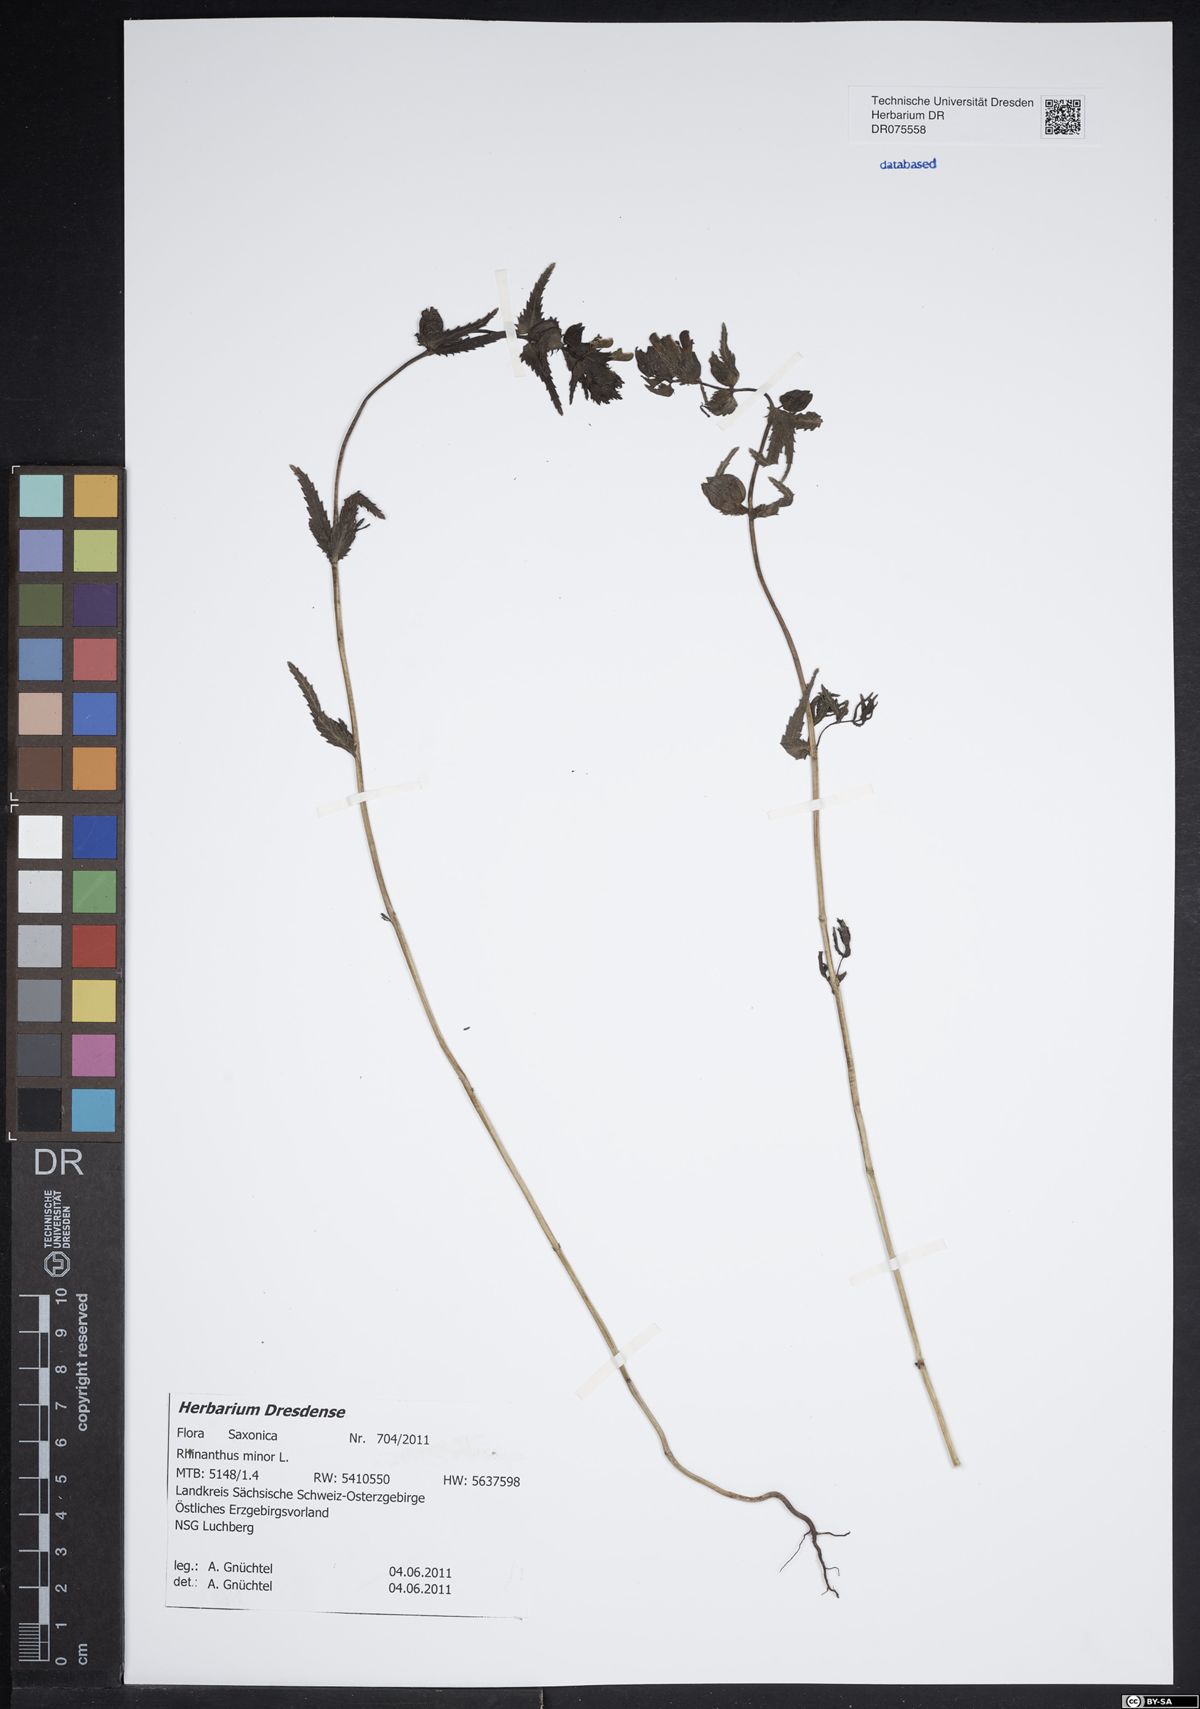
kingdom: Plantae
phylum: Tracheophyta
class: Magnoliopsida
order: Lamiales
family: Orobanchaceae
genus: Rhinanthus
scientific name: Rhinanthus minor
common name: Yellow-rattle
